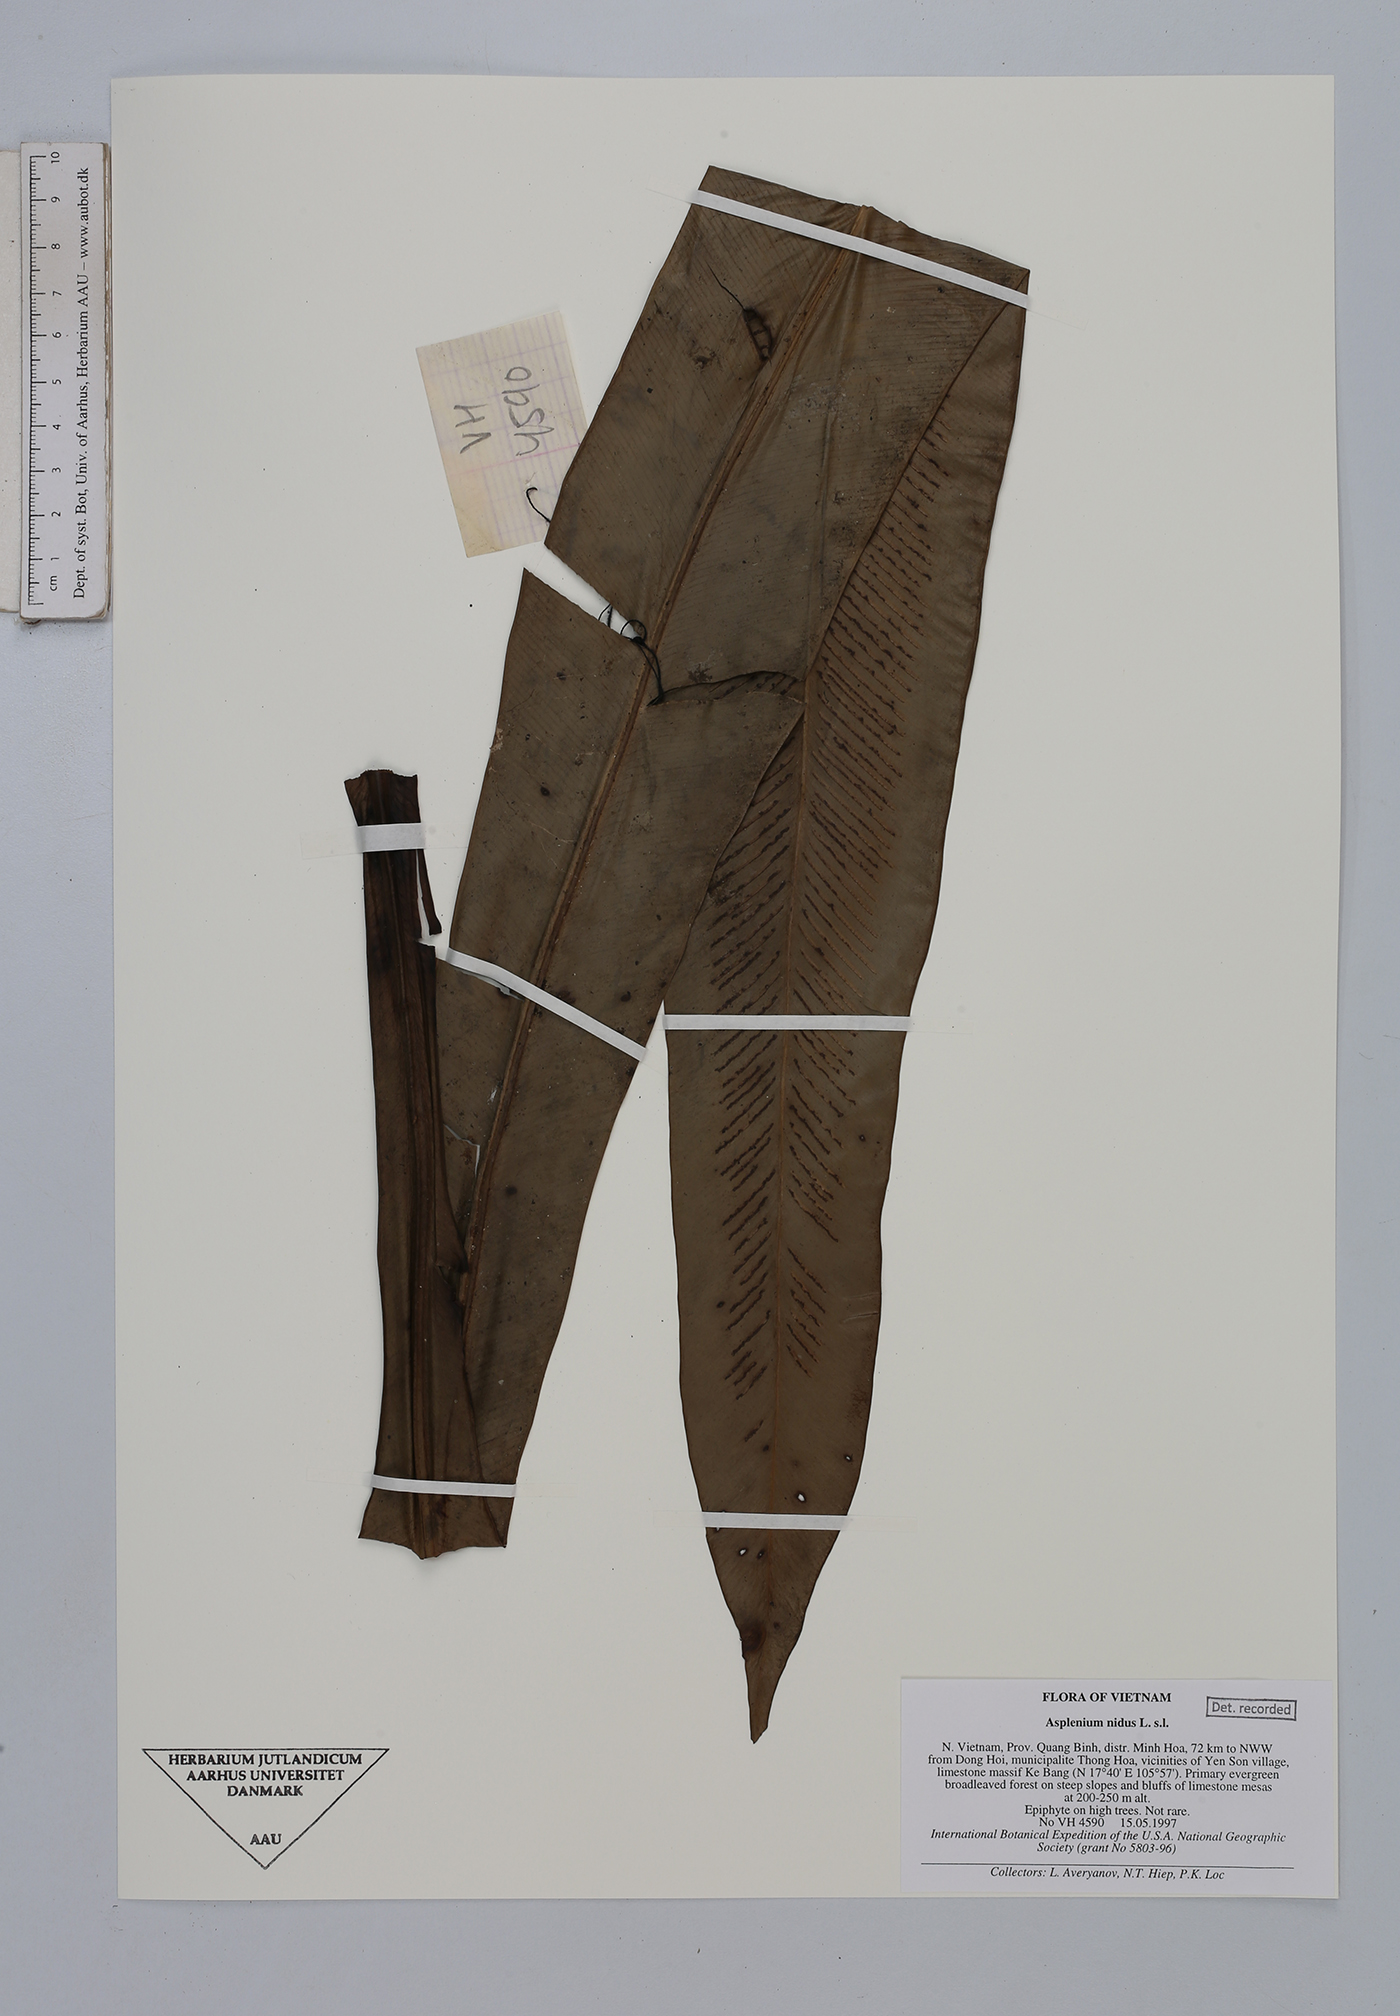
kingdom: Plantae
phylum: Tracheophyta
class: Polypodiopsida
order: Polypodiales
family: Aspleniaceae
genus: Asplenium
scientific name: Asplenium nidus
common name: Bird's-nest fern
